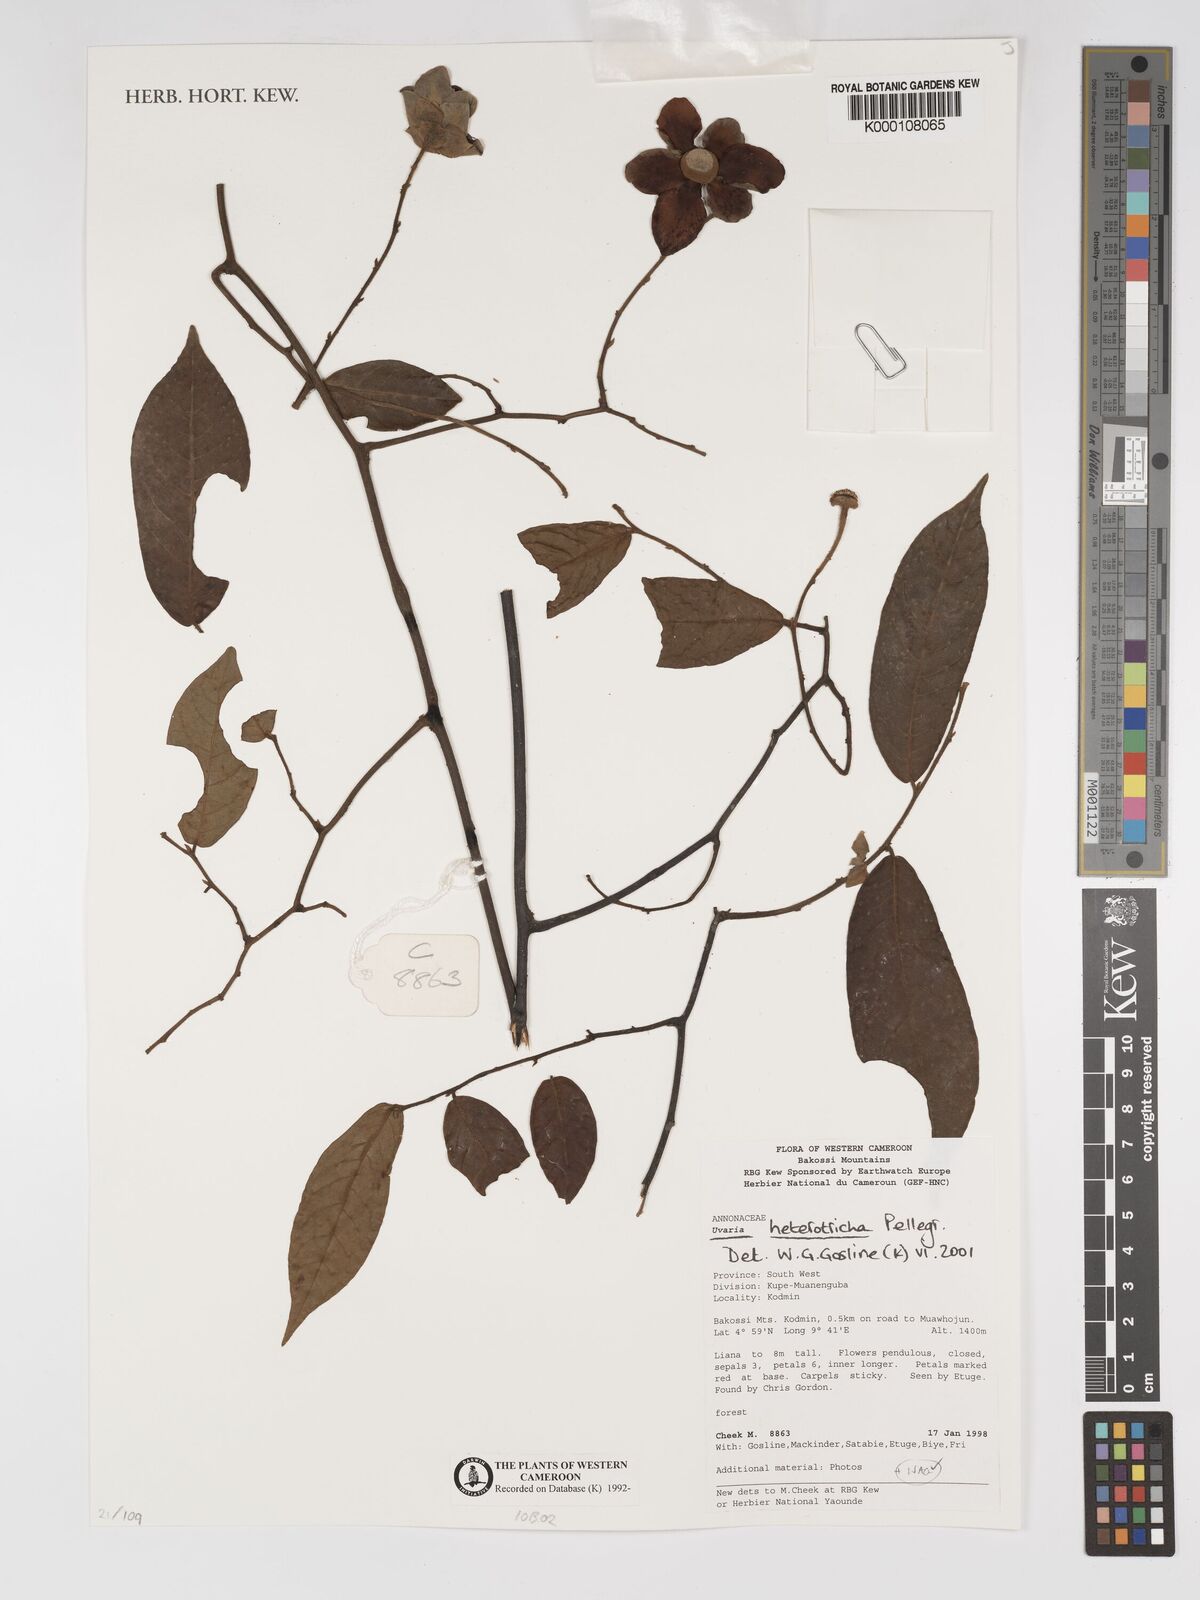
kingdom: Plantae
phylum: Tracheophyta
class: Magnoliopsida
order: Magnoliales
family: Annonaceae
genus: Uvaria
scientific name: Uvaria heterotricha
